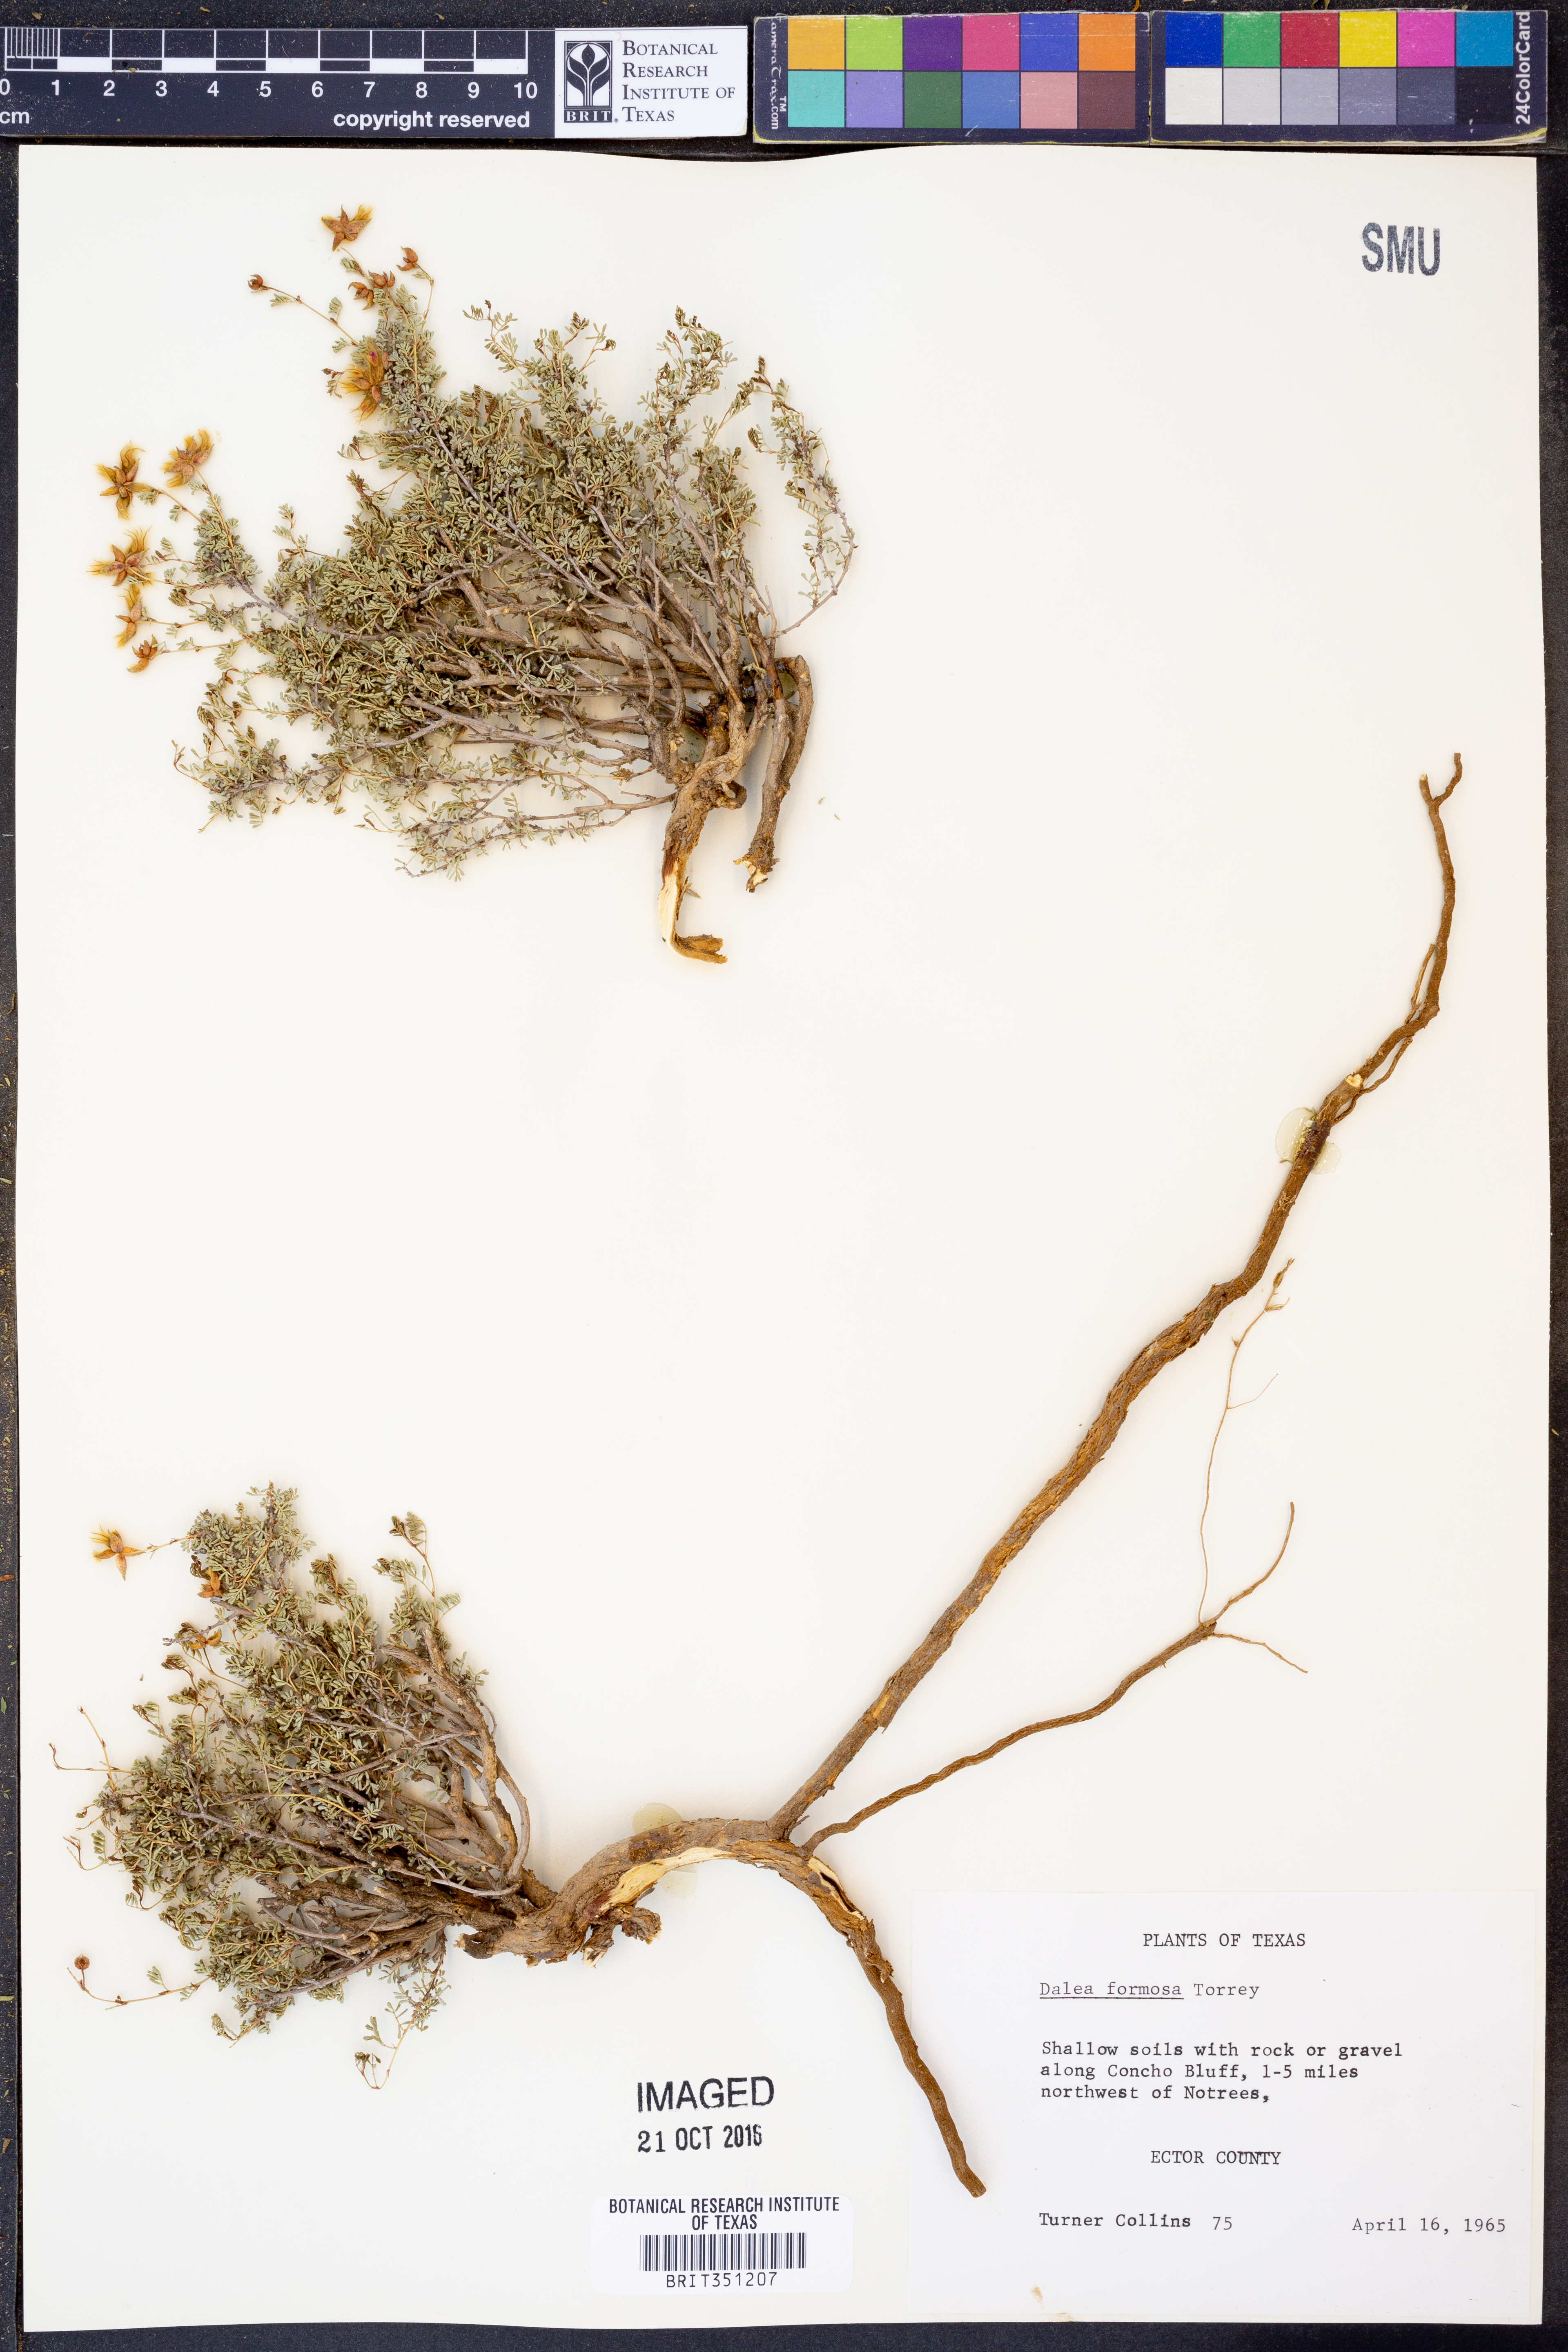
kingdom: Plantae
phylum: Tracheophyta
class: Magnoliopsida
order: Fabales
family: Fabaceae
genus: Dalea
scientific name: Dalea formosa
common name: Feather-plume dalea
